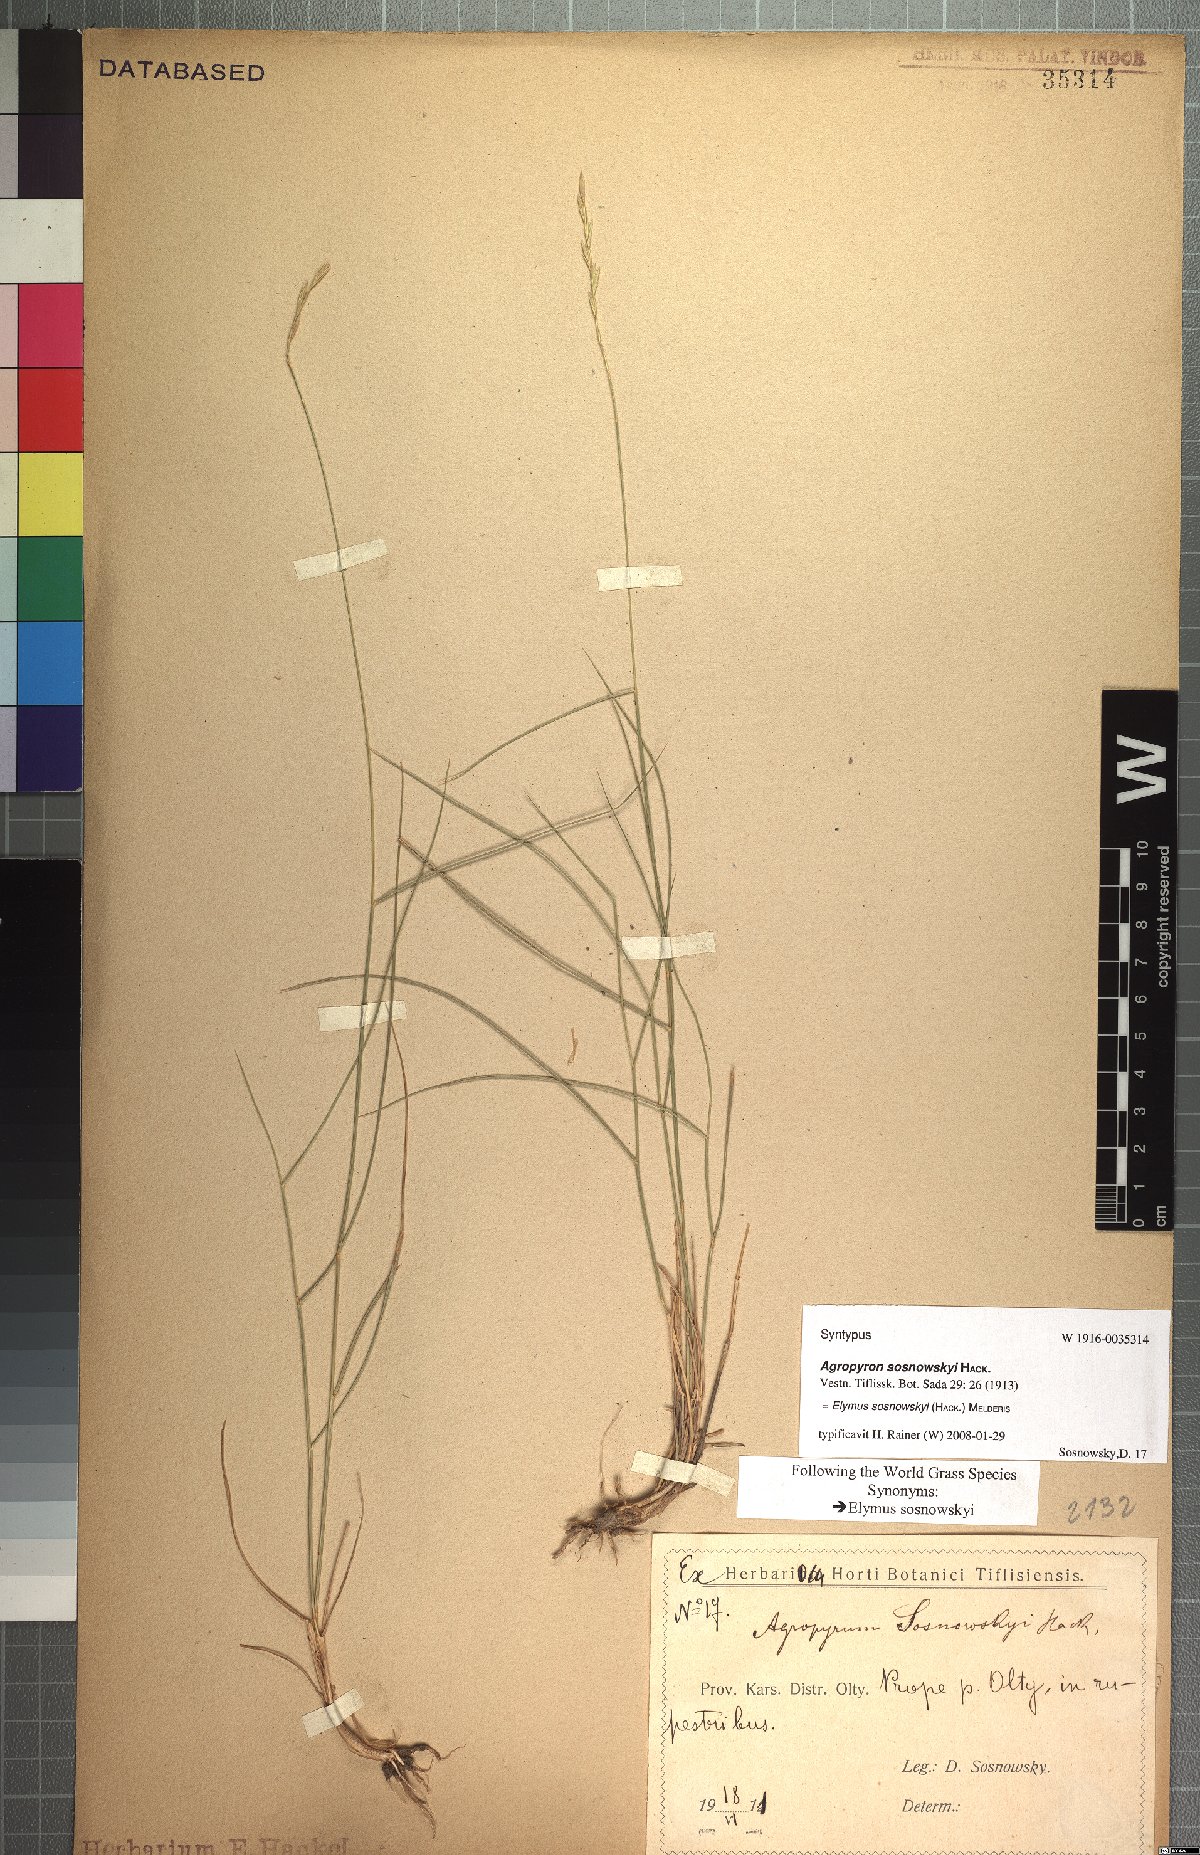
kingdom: Plantae
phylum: Tracheophyta
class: Liliopsida
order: Poales
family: Poaceae
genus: Pseudoroegneria
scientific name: Pseudoroegneria sosnowskyi
